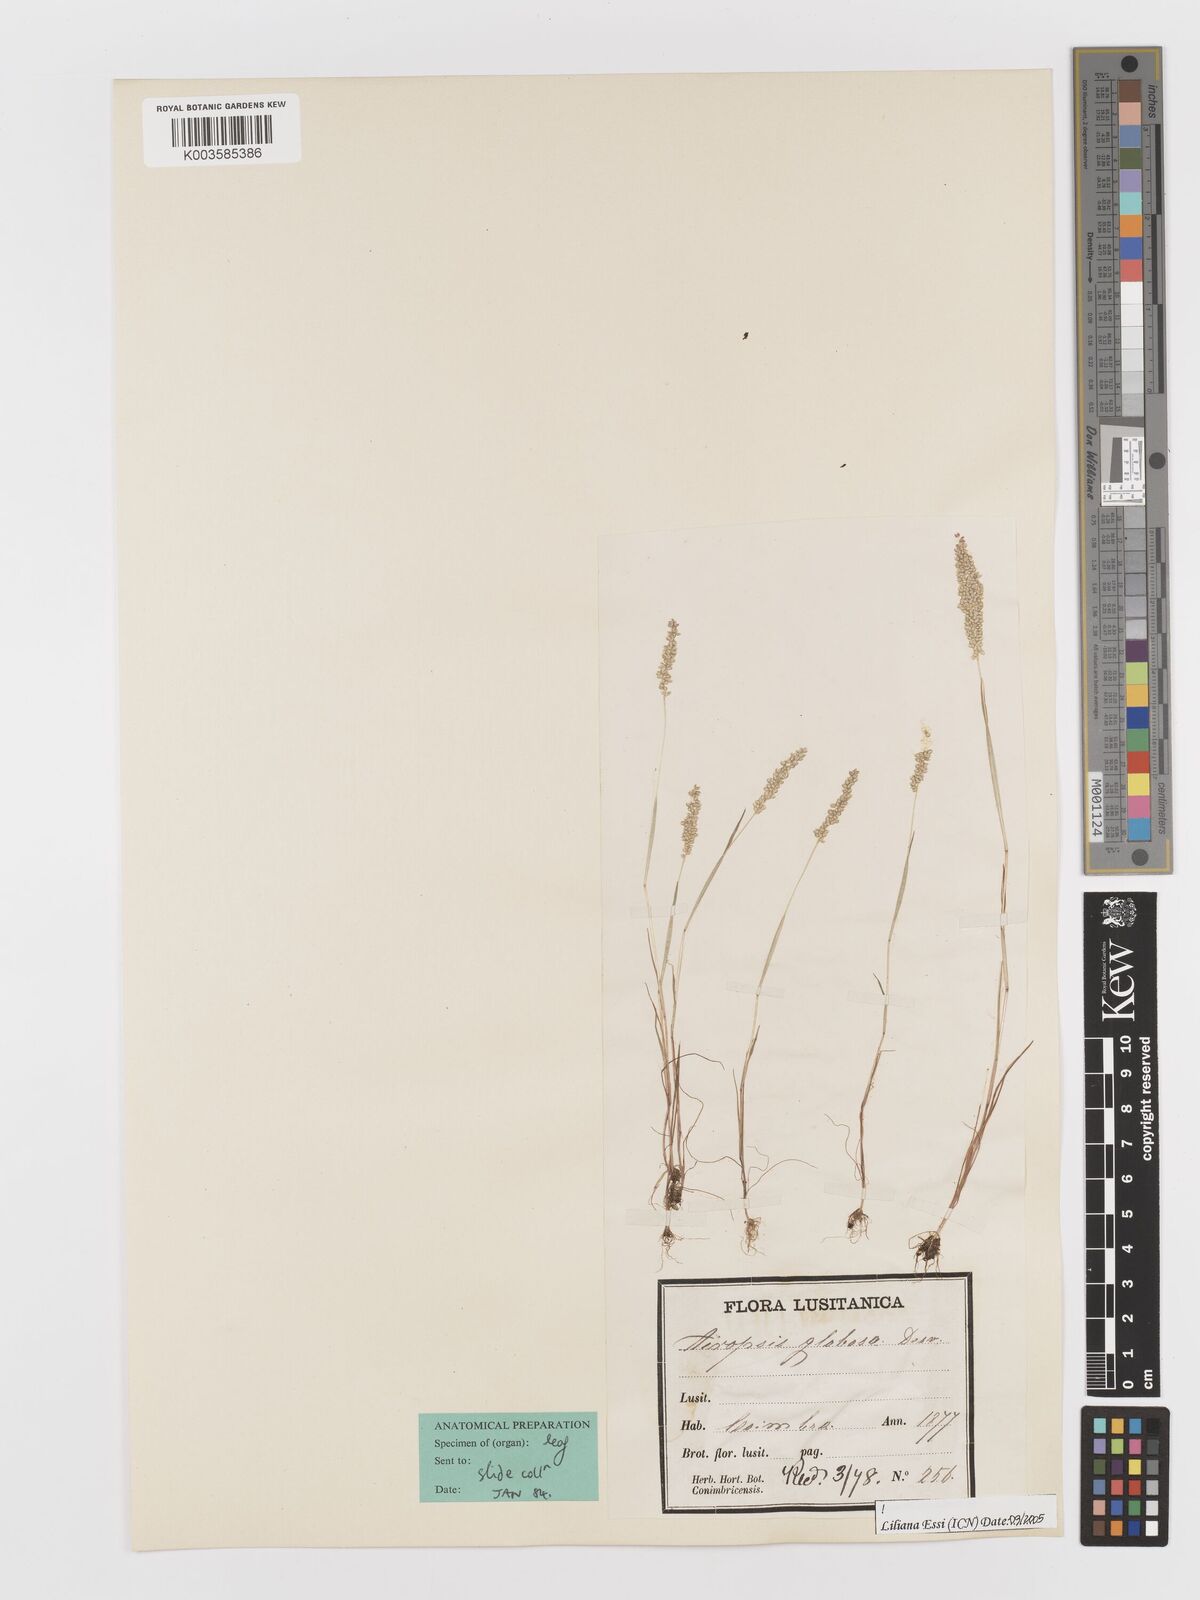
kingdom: Plantae
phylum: Tracheophyta
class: Liliopsida
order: Poales
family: Poaceae
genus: Airopsis
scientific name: Airopsis tenella
